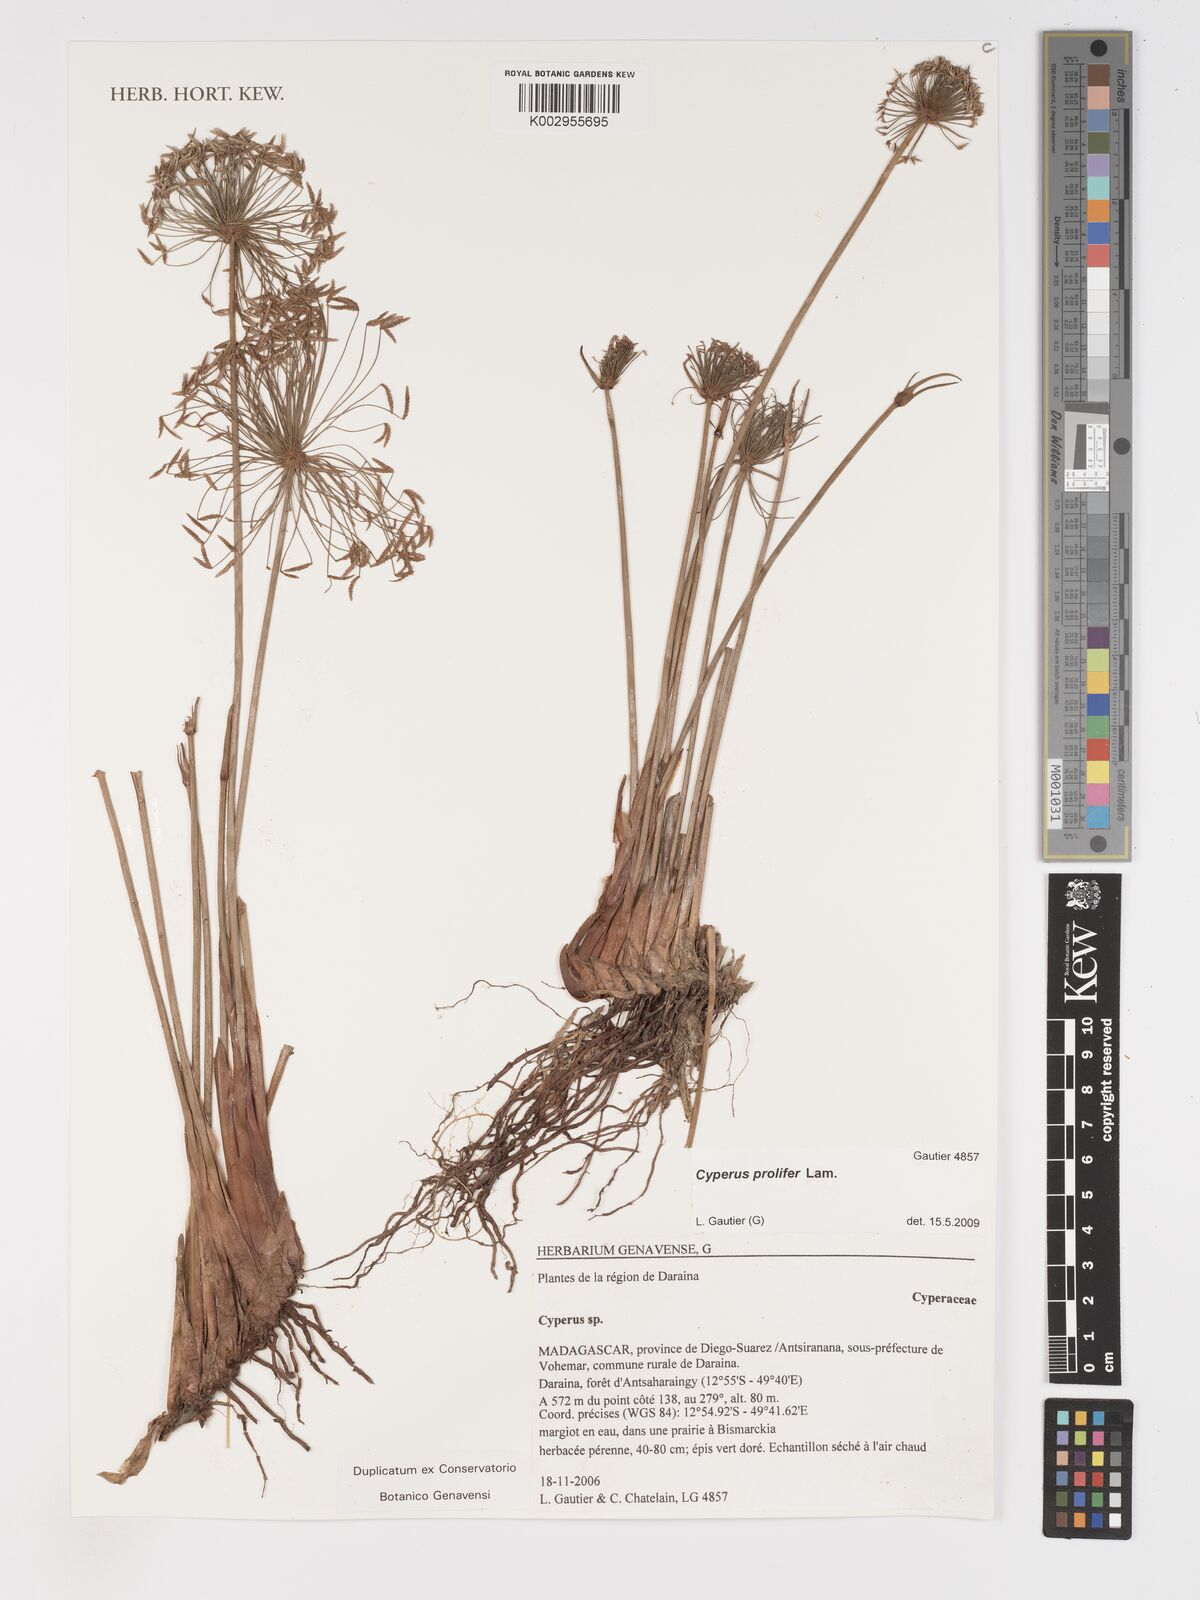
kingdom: Plantae
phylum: Tracheophyta
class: Liliopsida
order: Poales
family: Cyperaceae
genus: Cyperus
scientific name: Cyperus prolifer
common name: Miniature flatsedge
